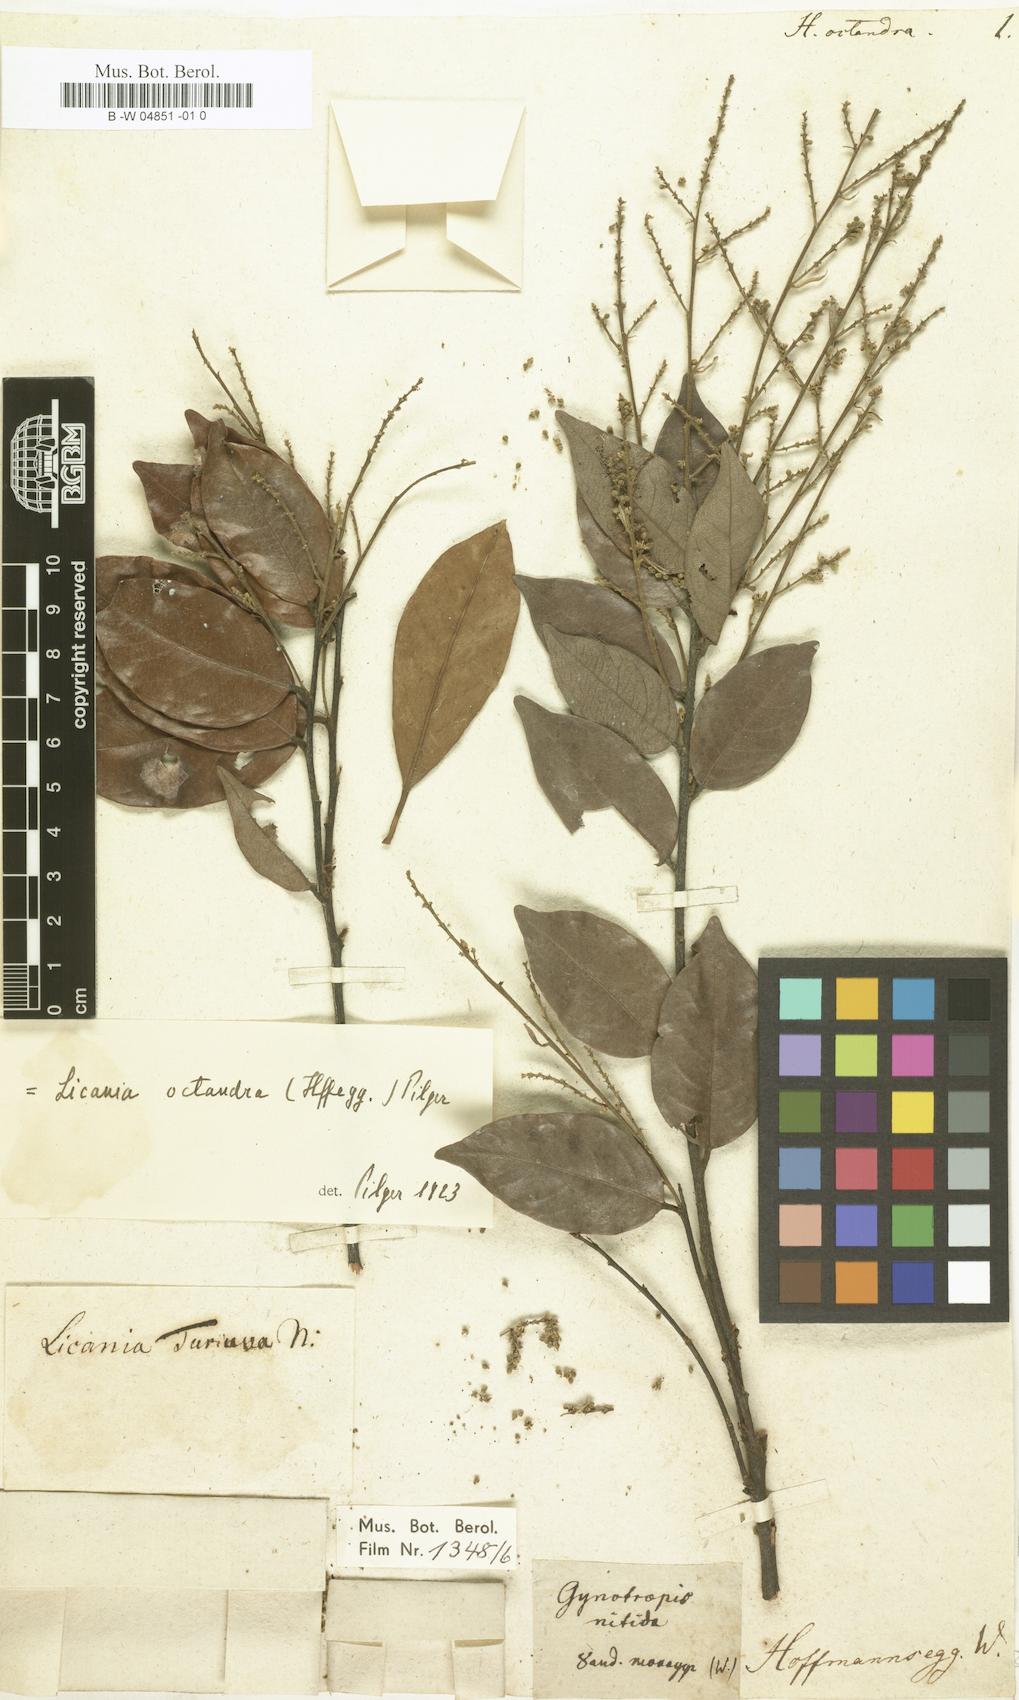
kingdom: Plantae
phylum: Tracheophyta
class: Magnoliopsida
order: Malpighiales
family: Chrysobalanaceae
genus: Hirtella
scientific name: Hirtella octandra
